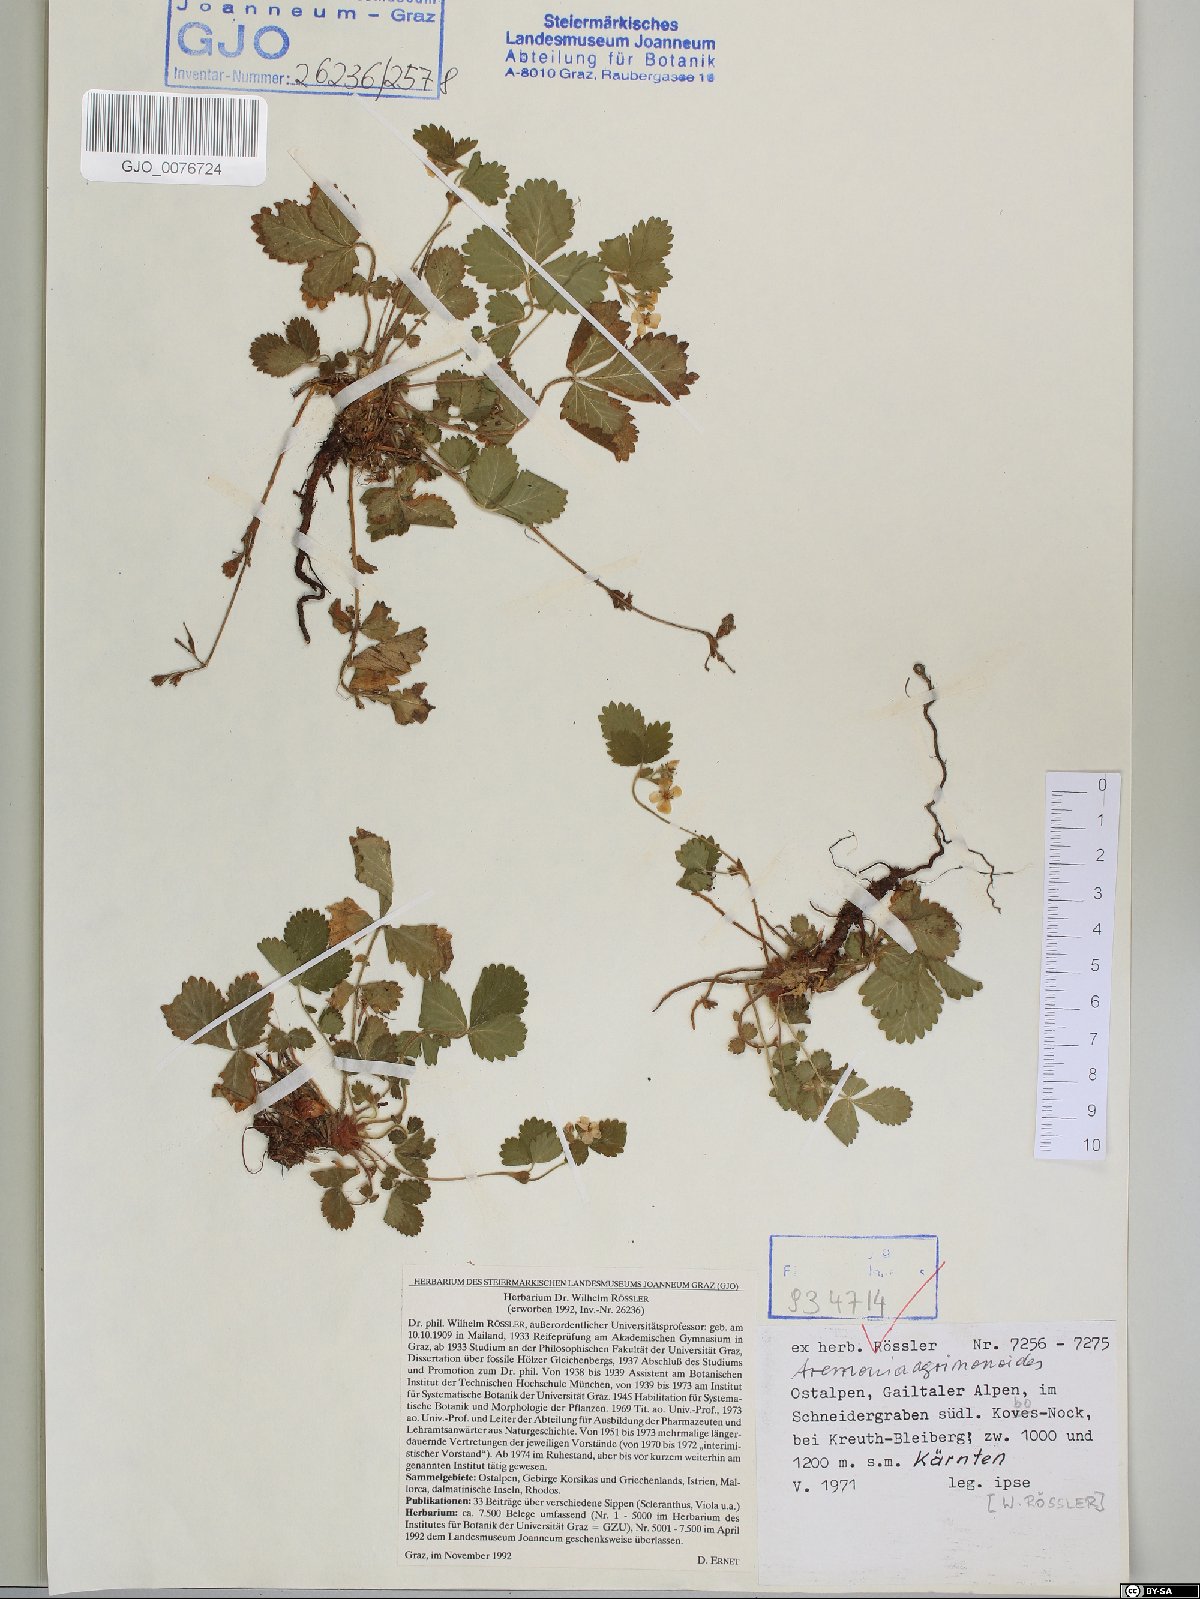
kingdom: Plantae
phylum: Tracheophyta
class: Magnoliopsida
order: Rosales
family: Rosaceae
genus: Aremonia
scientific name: Aremonia agrimonoides
